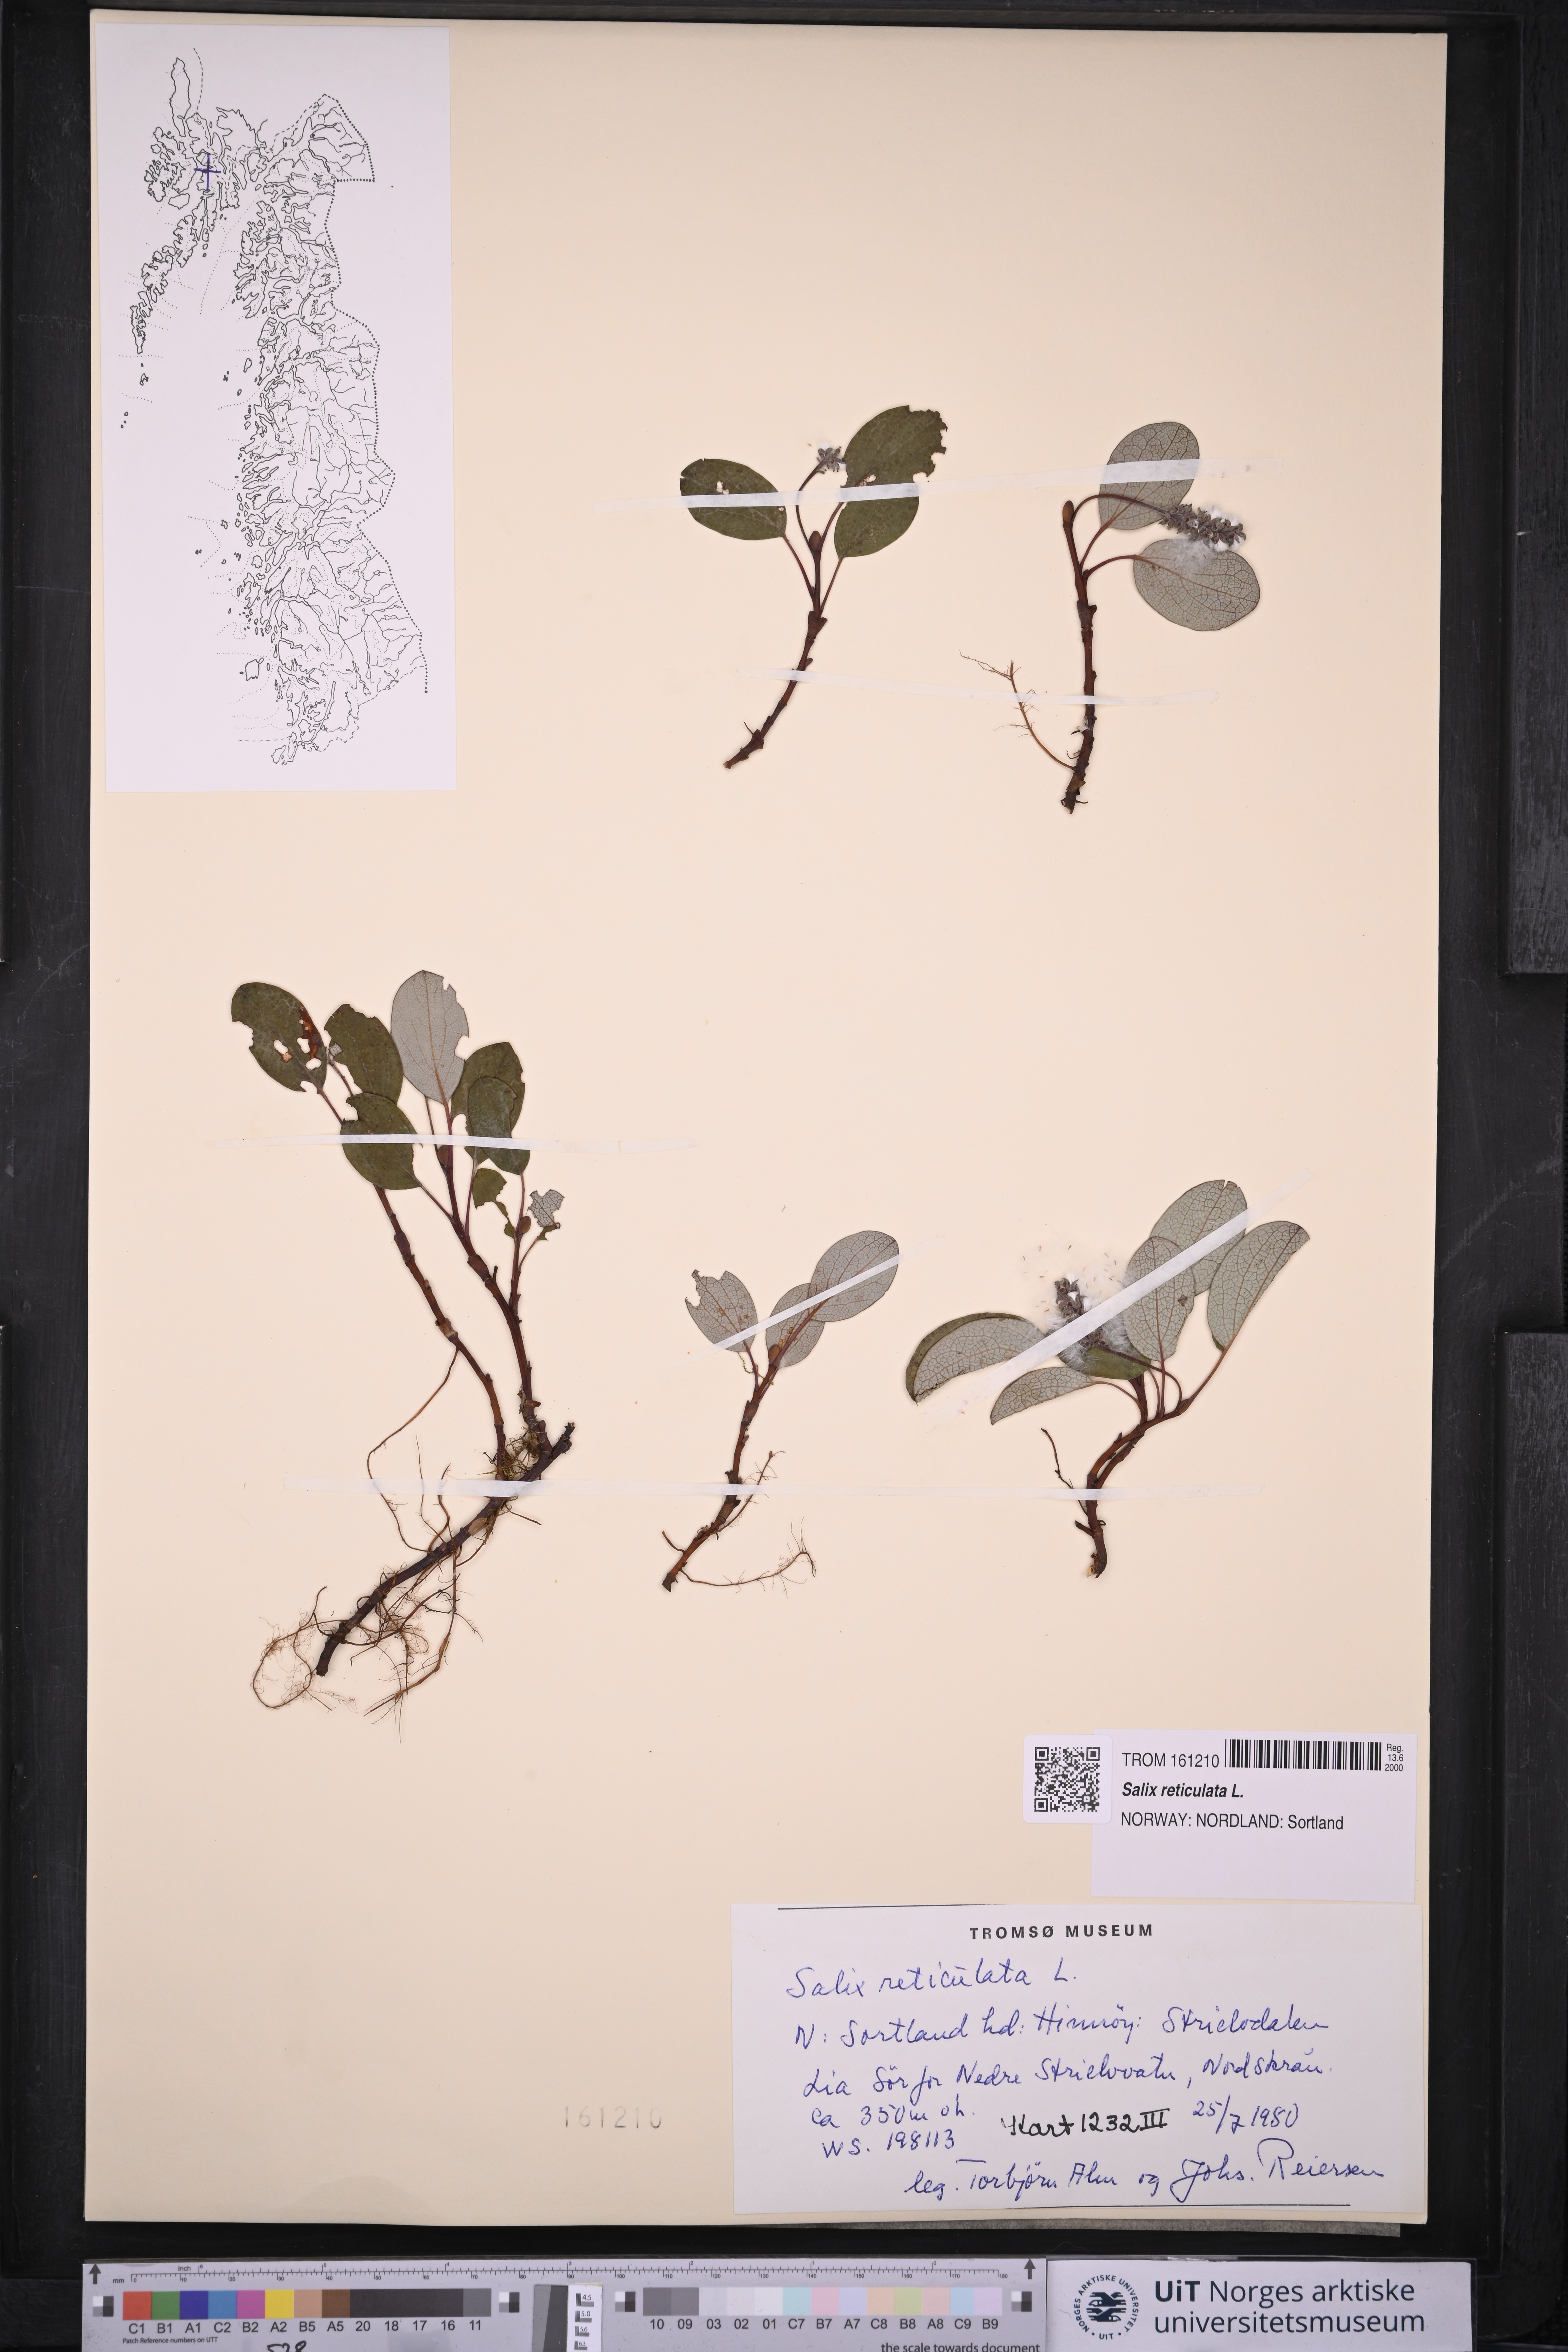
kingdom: Plantae
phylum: Tracheophyta
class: Magnoliopsida
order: Malpighiales
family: Salicaceae
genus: Salix
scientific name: Salix reticulata
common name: Net-leaved willow
